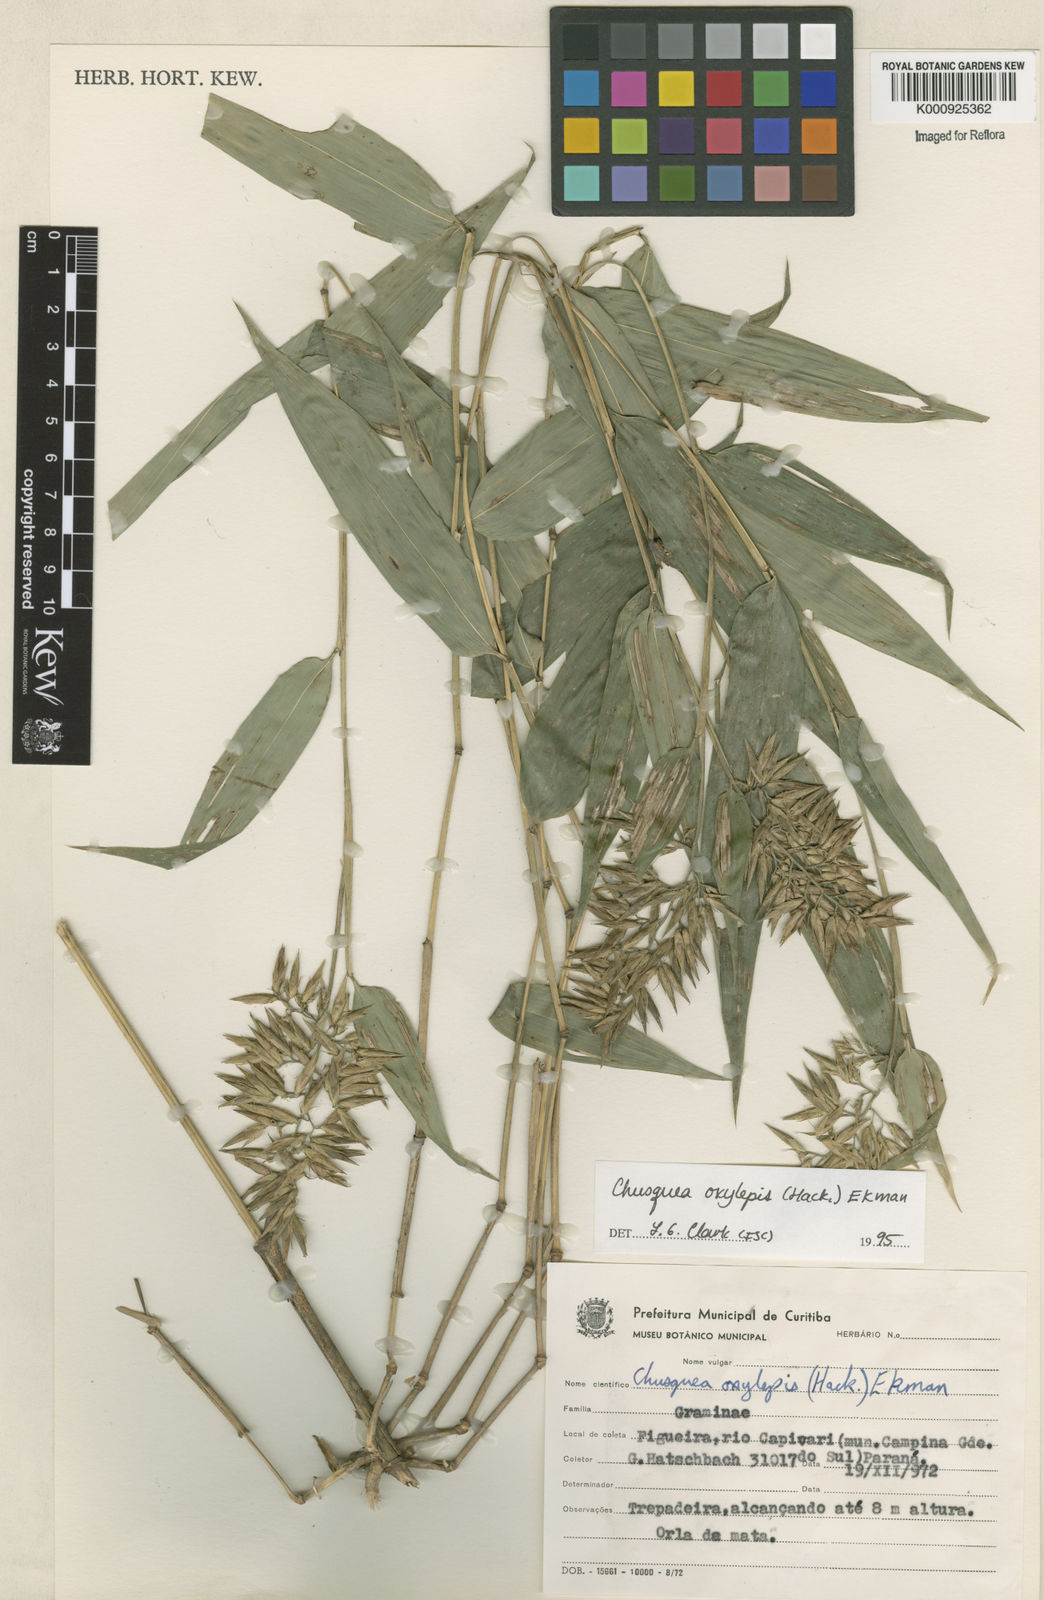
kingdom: Plantae
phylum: Tracheophyta
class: Liliopsida
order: Poales
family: Poaceae
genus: Chusquea
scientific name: Chusquea oxylepis
